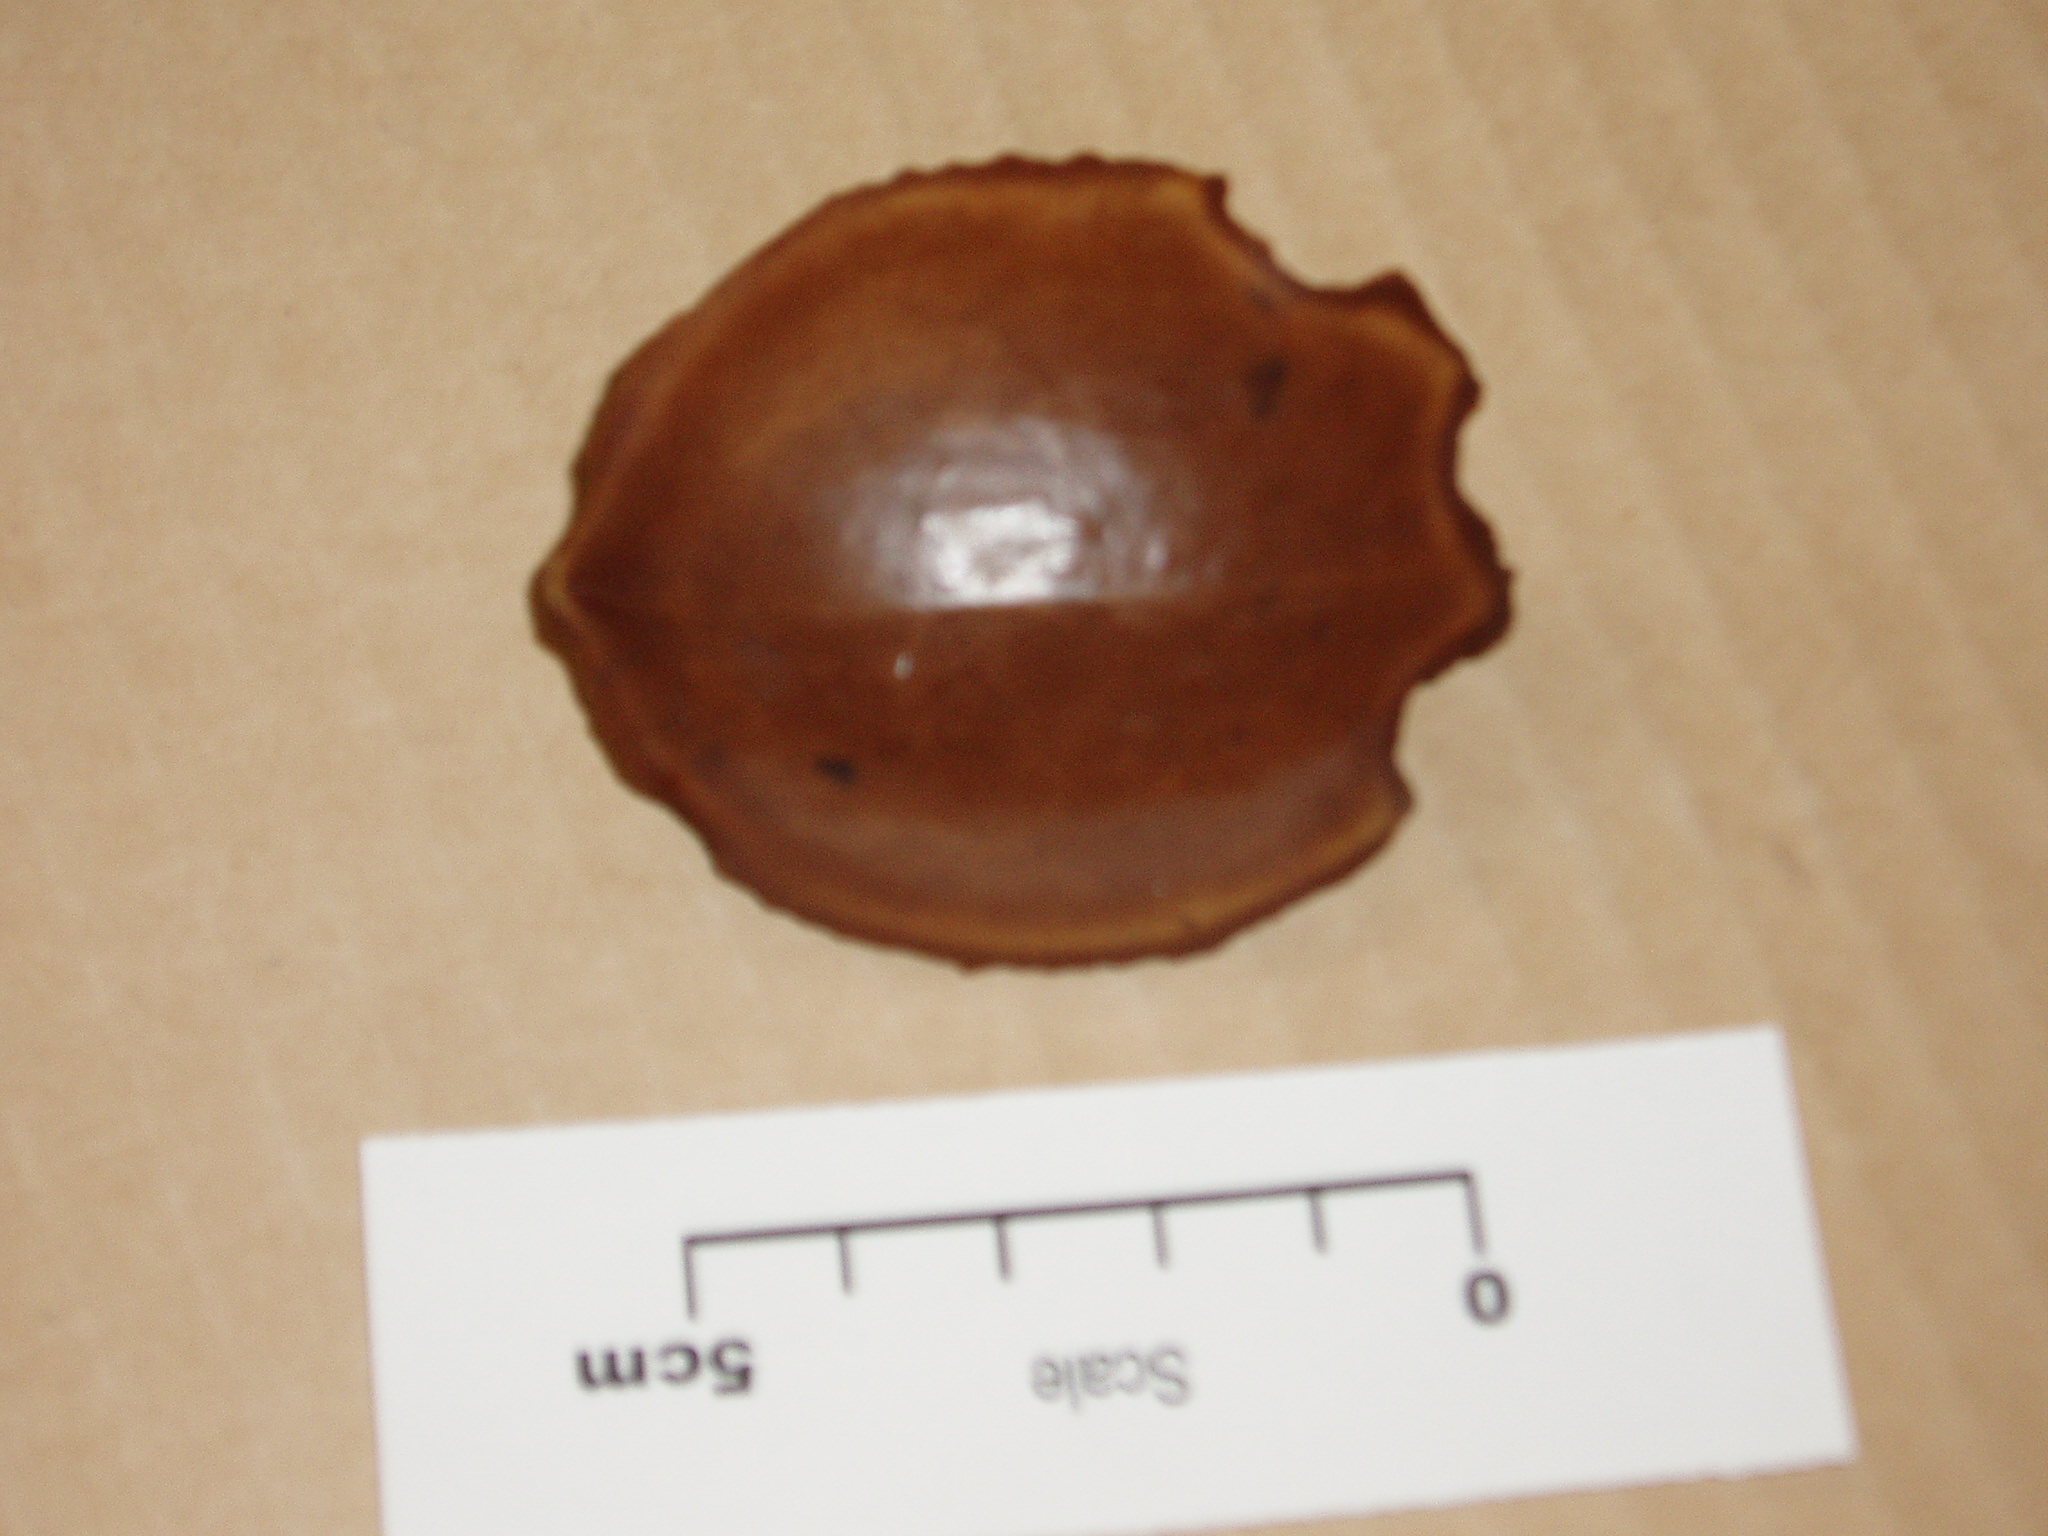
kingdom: Plantae
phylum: Tracheophyta
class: Magnoliopsida
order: Sapindales
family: Meliaceae
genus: Xylocarpus
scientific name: Xylocarpus
